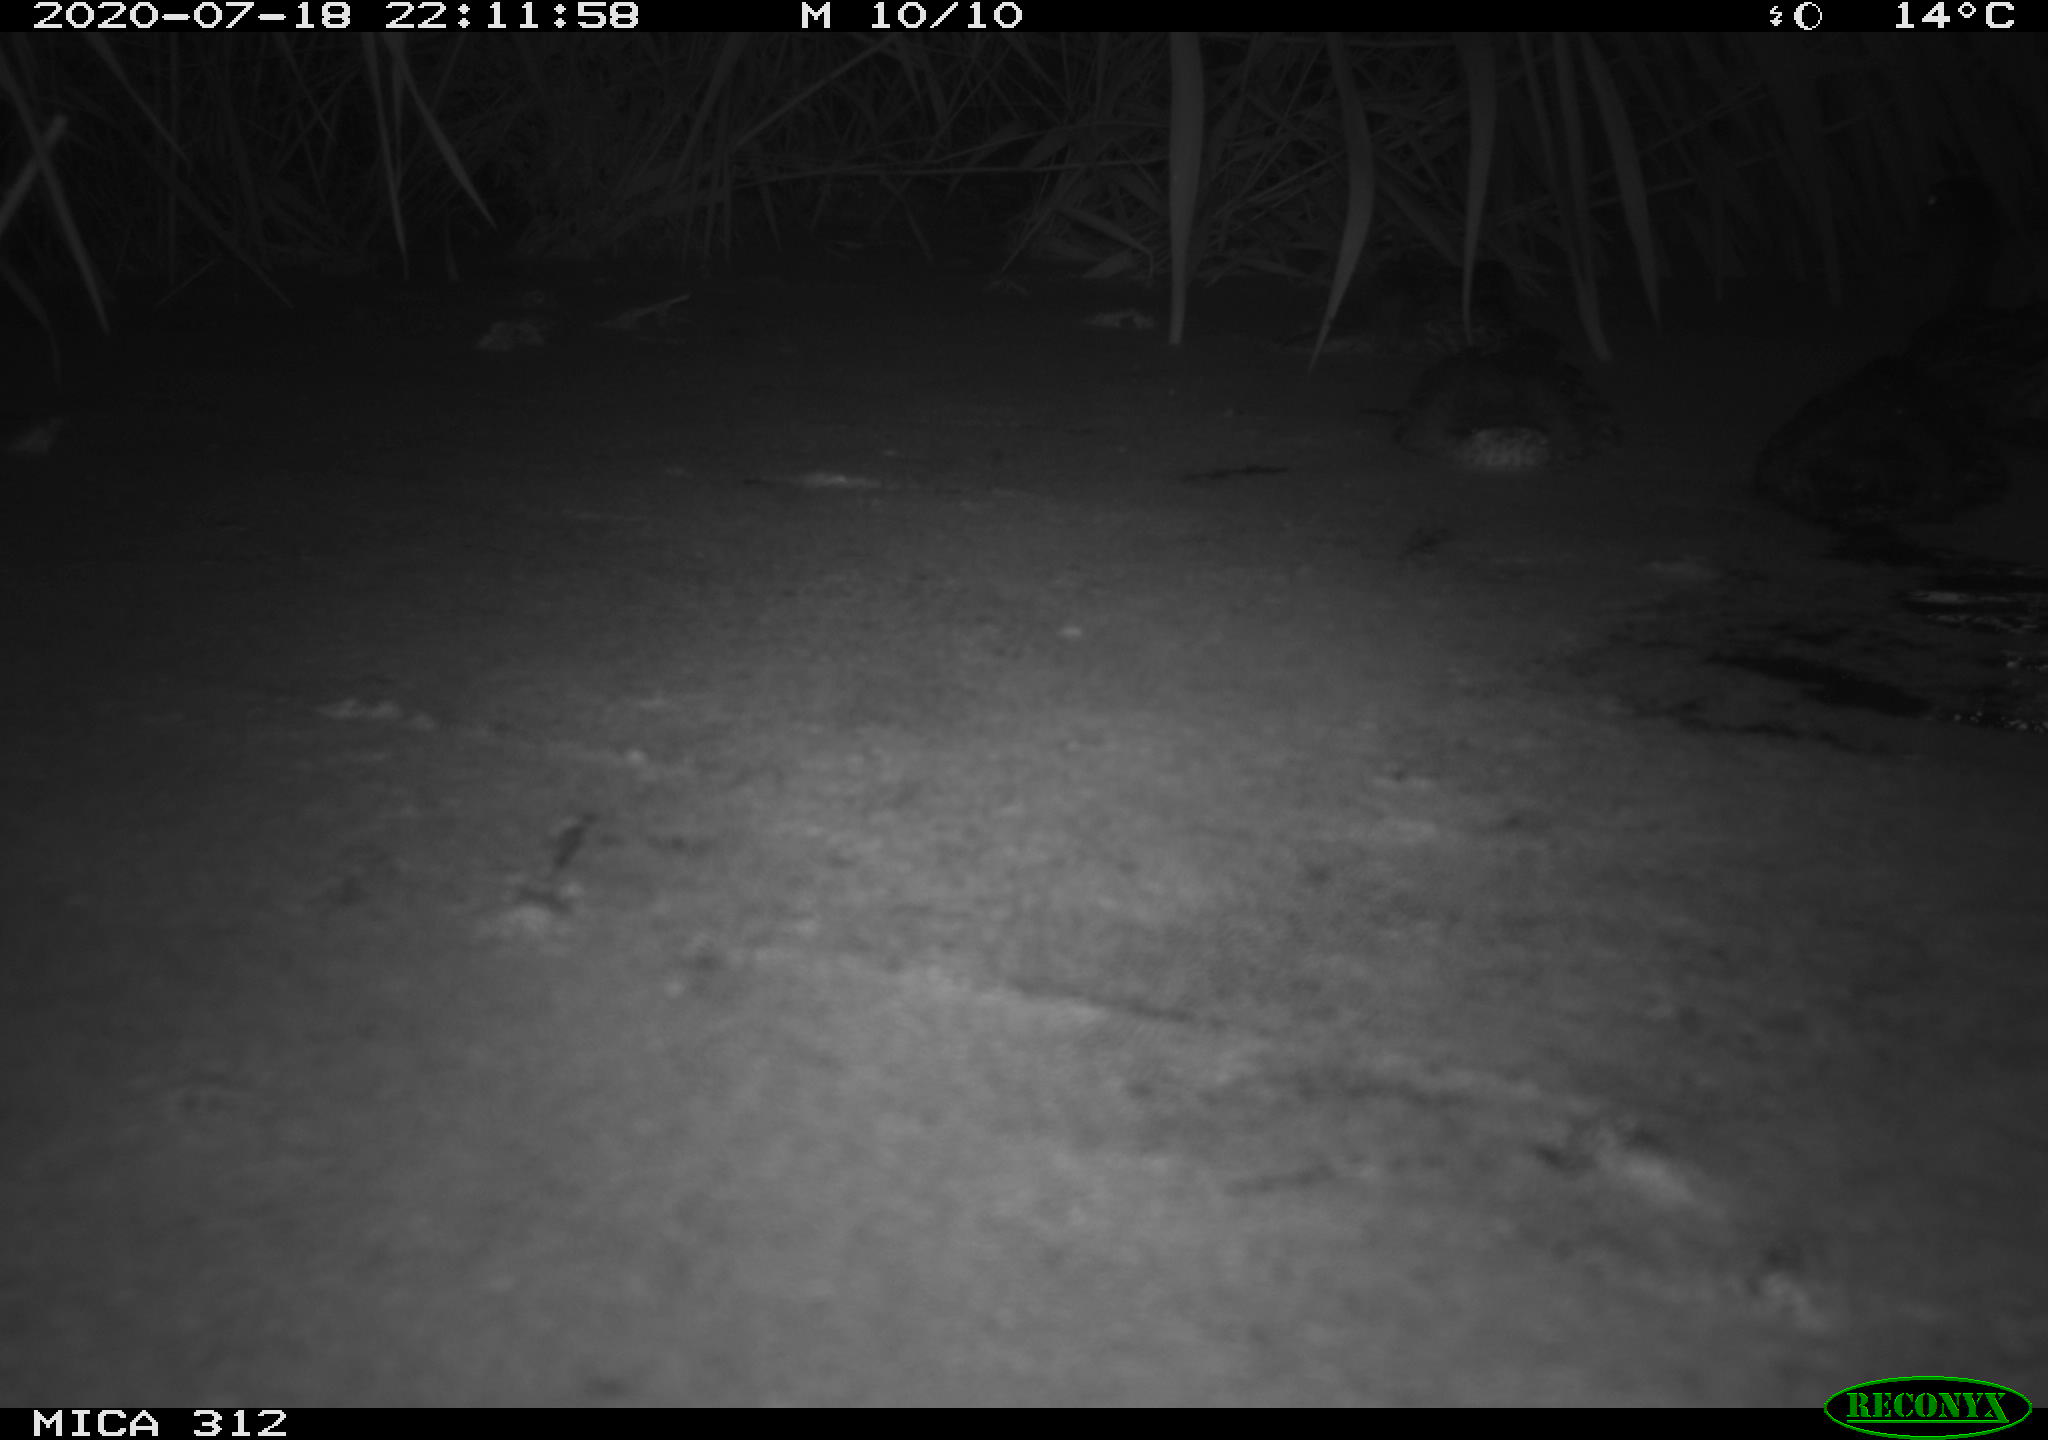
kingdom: Animalia
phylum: Chordata
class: Aves
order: Anseriformes
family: Anatidae
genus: Anas
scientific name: Anas platyrhynchos
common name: Mallard
